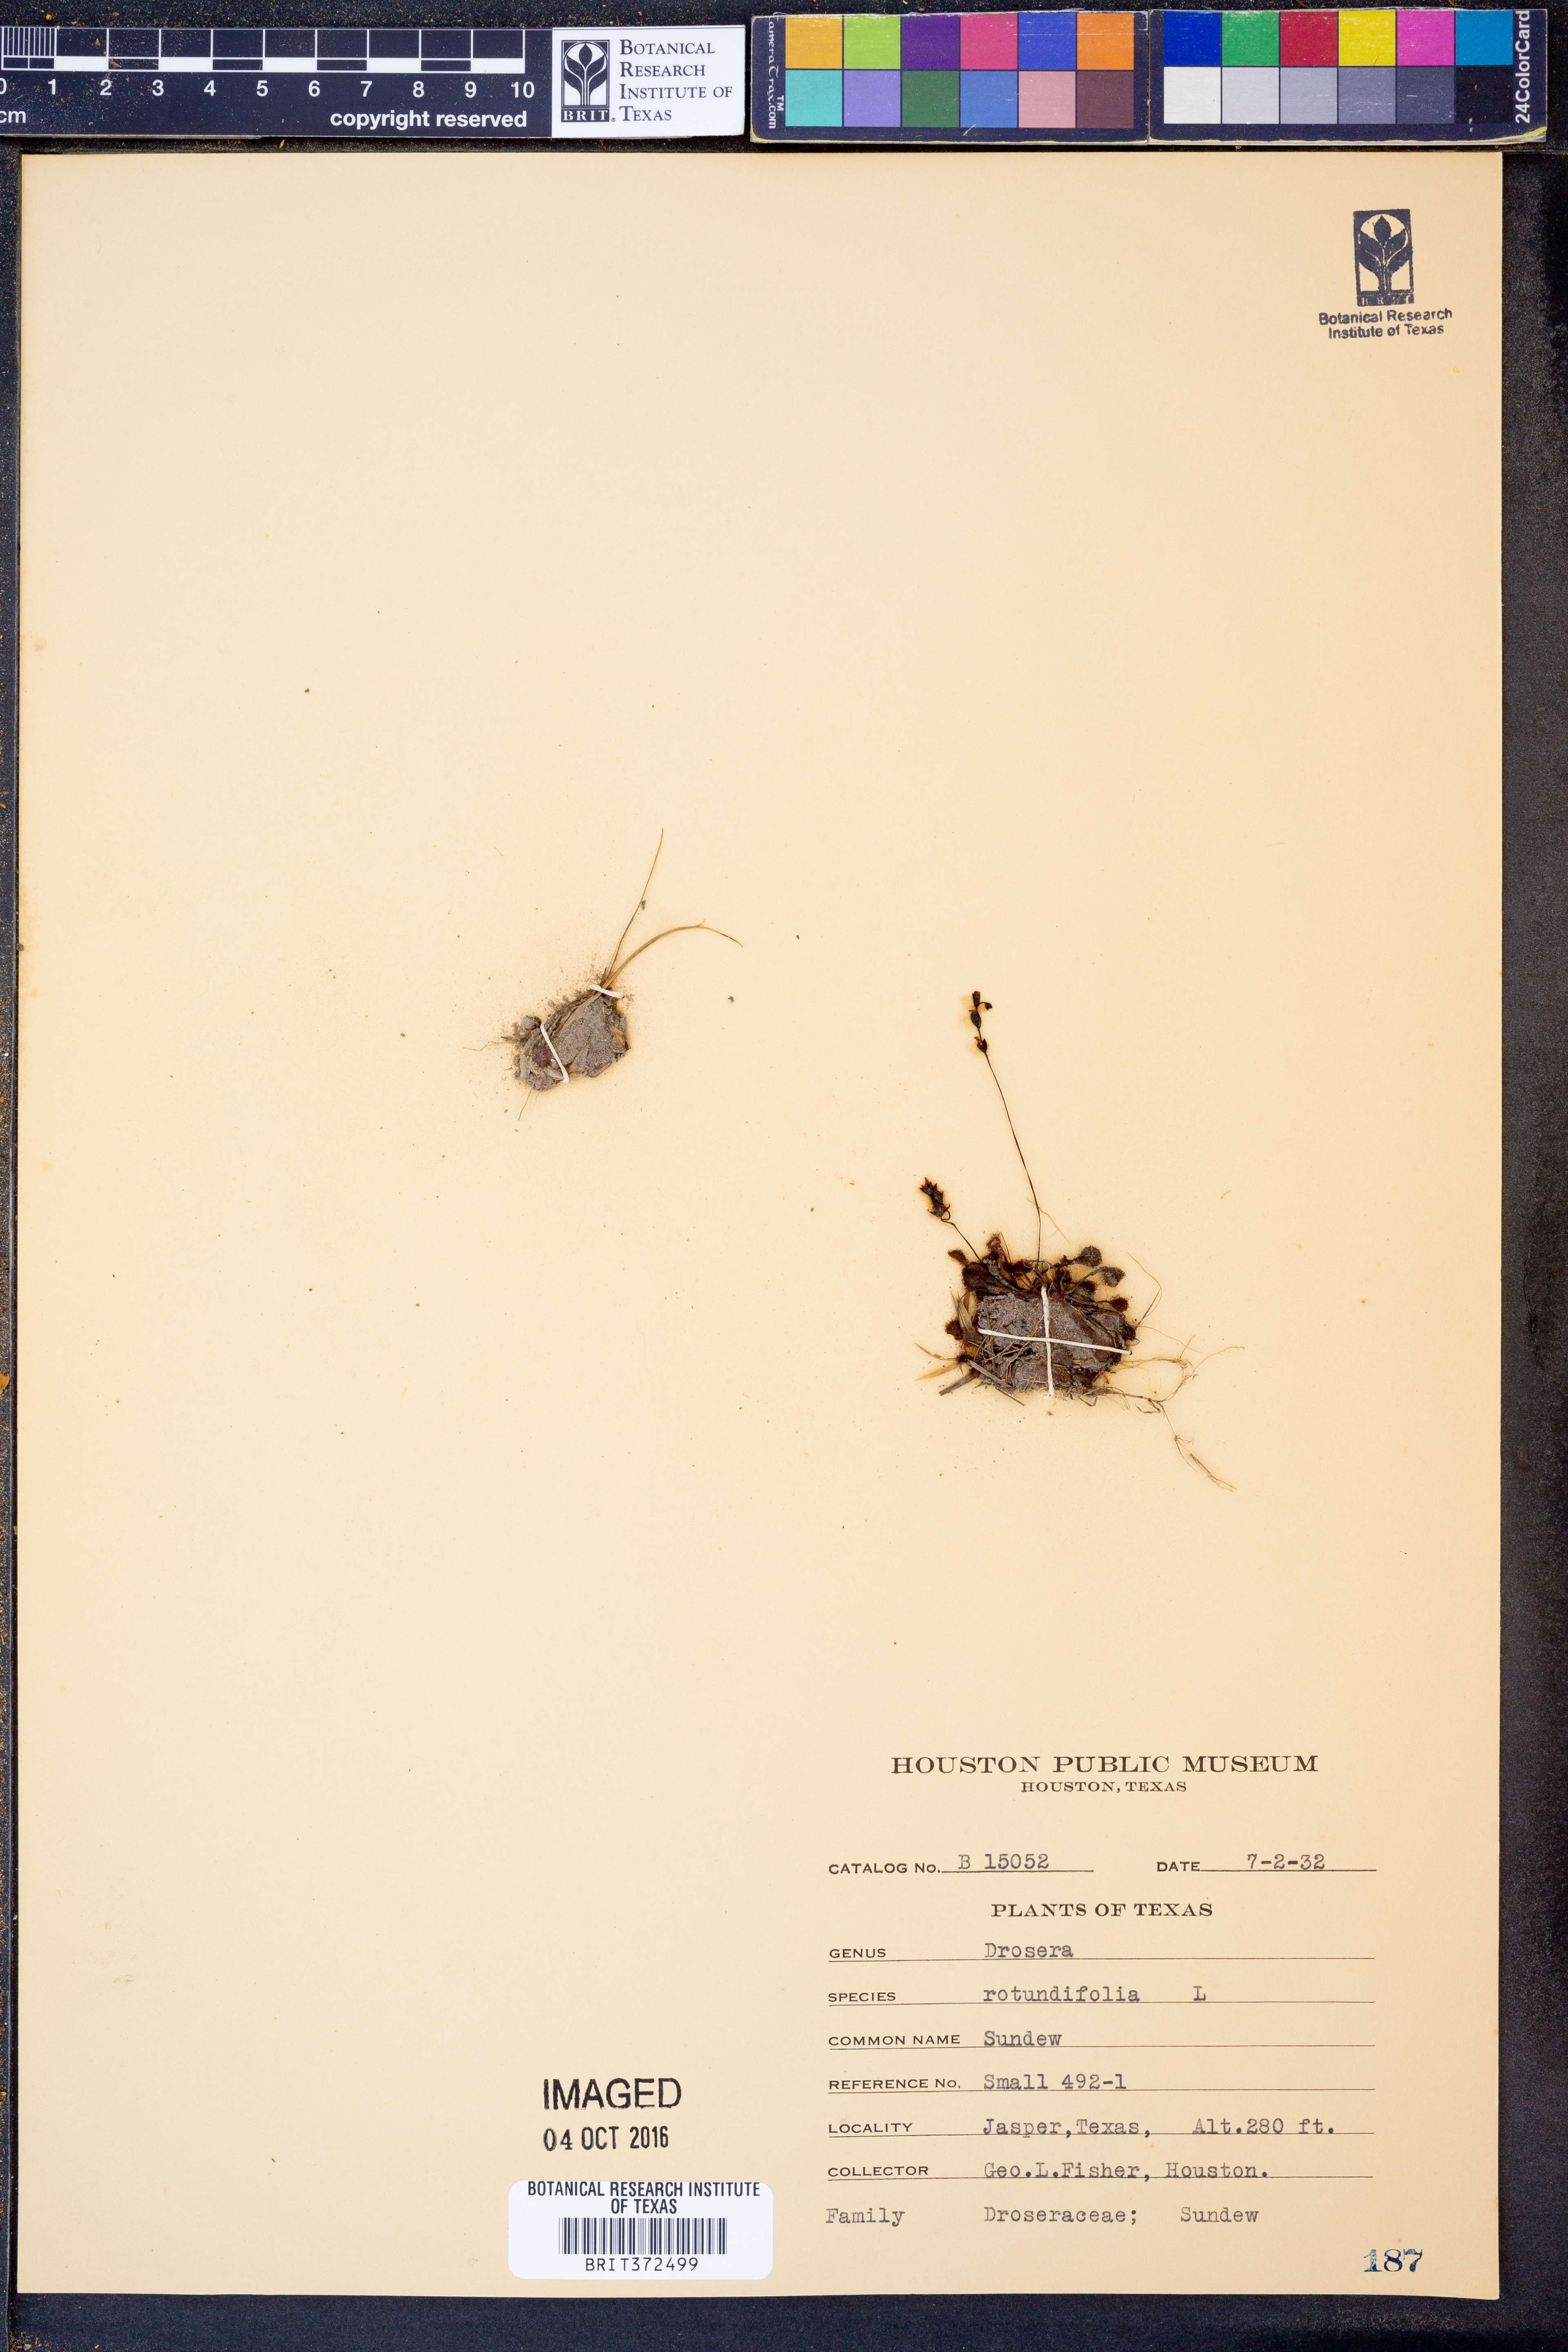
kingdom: Plantae
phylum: Tracheophyta
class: Magnoliopsida
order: Caryophyllales
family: Droseraceae
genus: Drosera
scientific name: Drosera rotundifolia
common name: Round-leaved sundew
